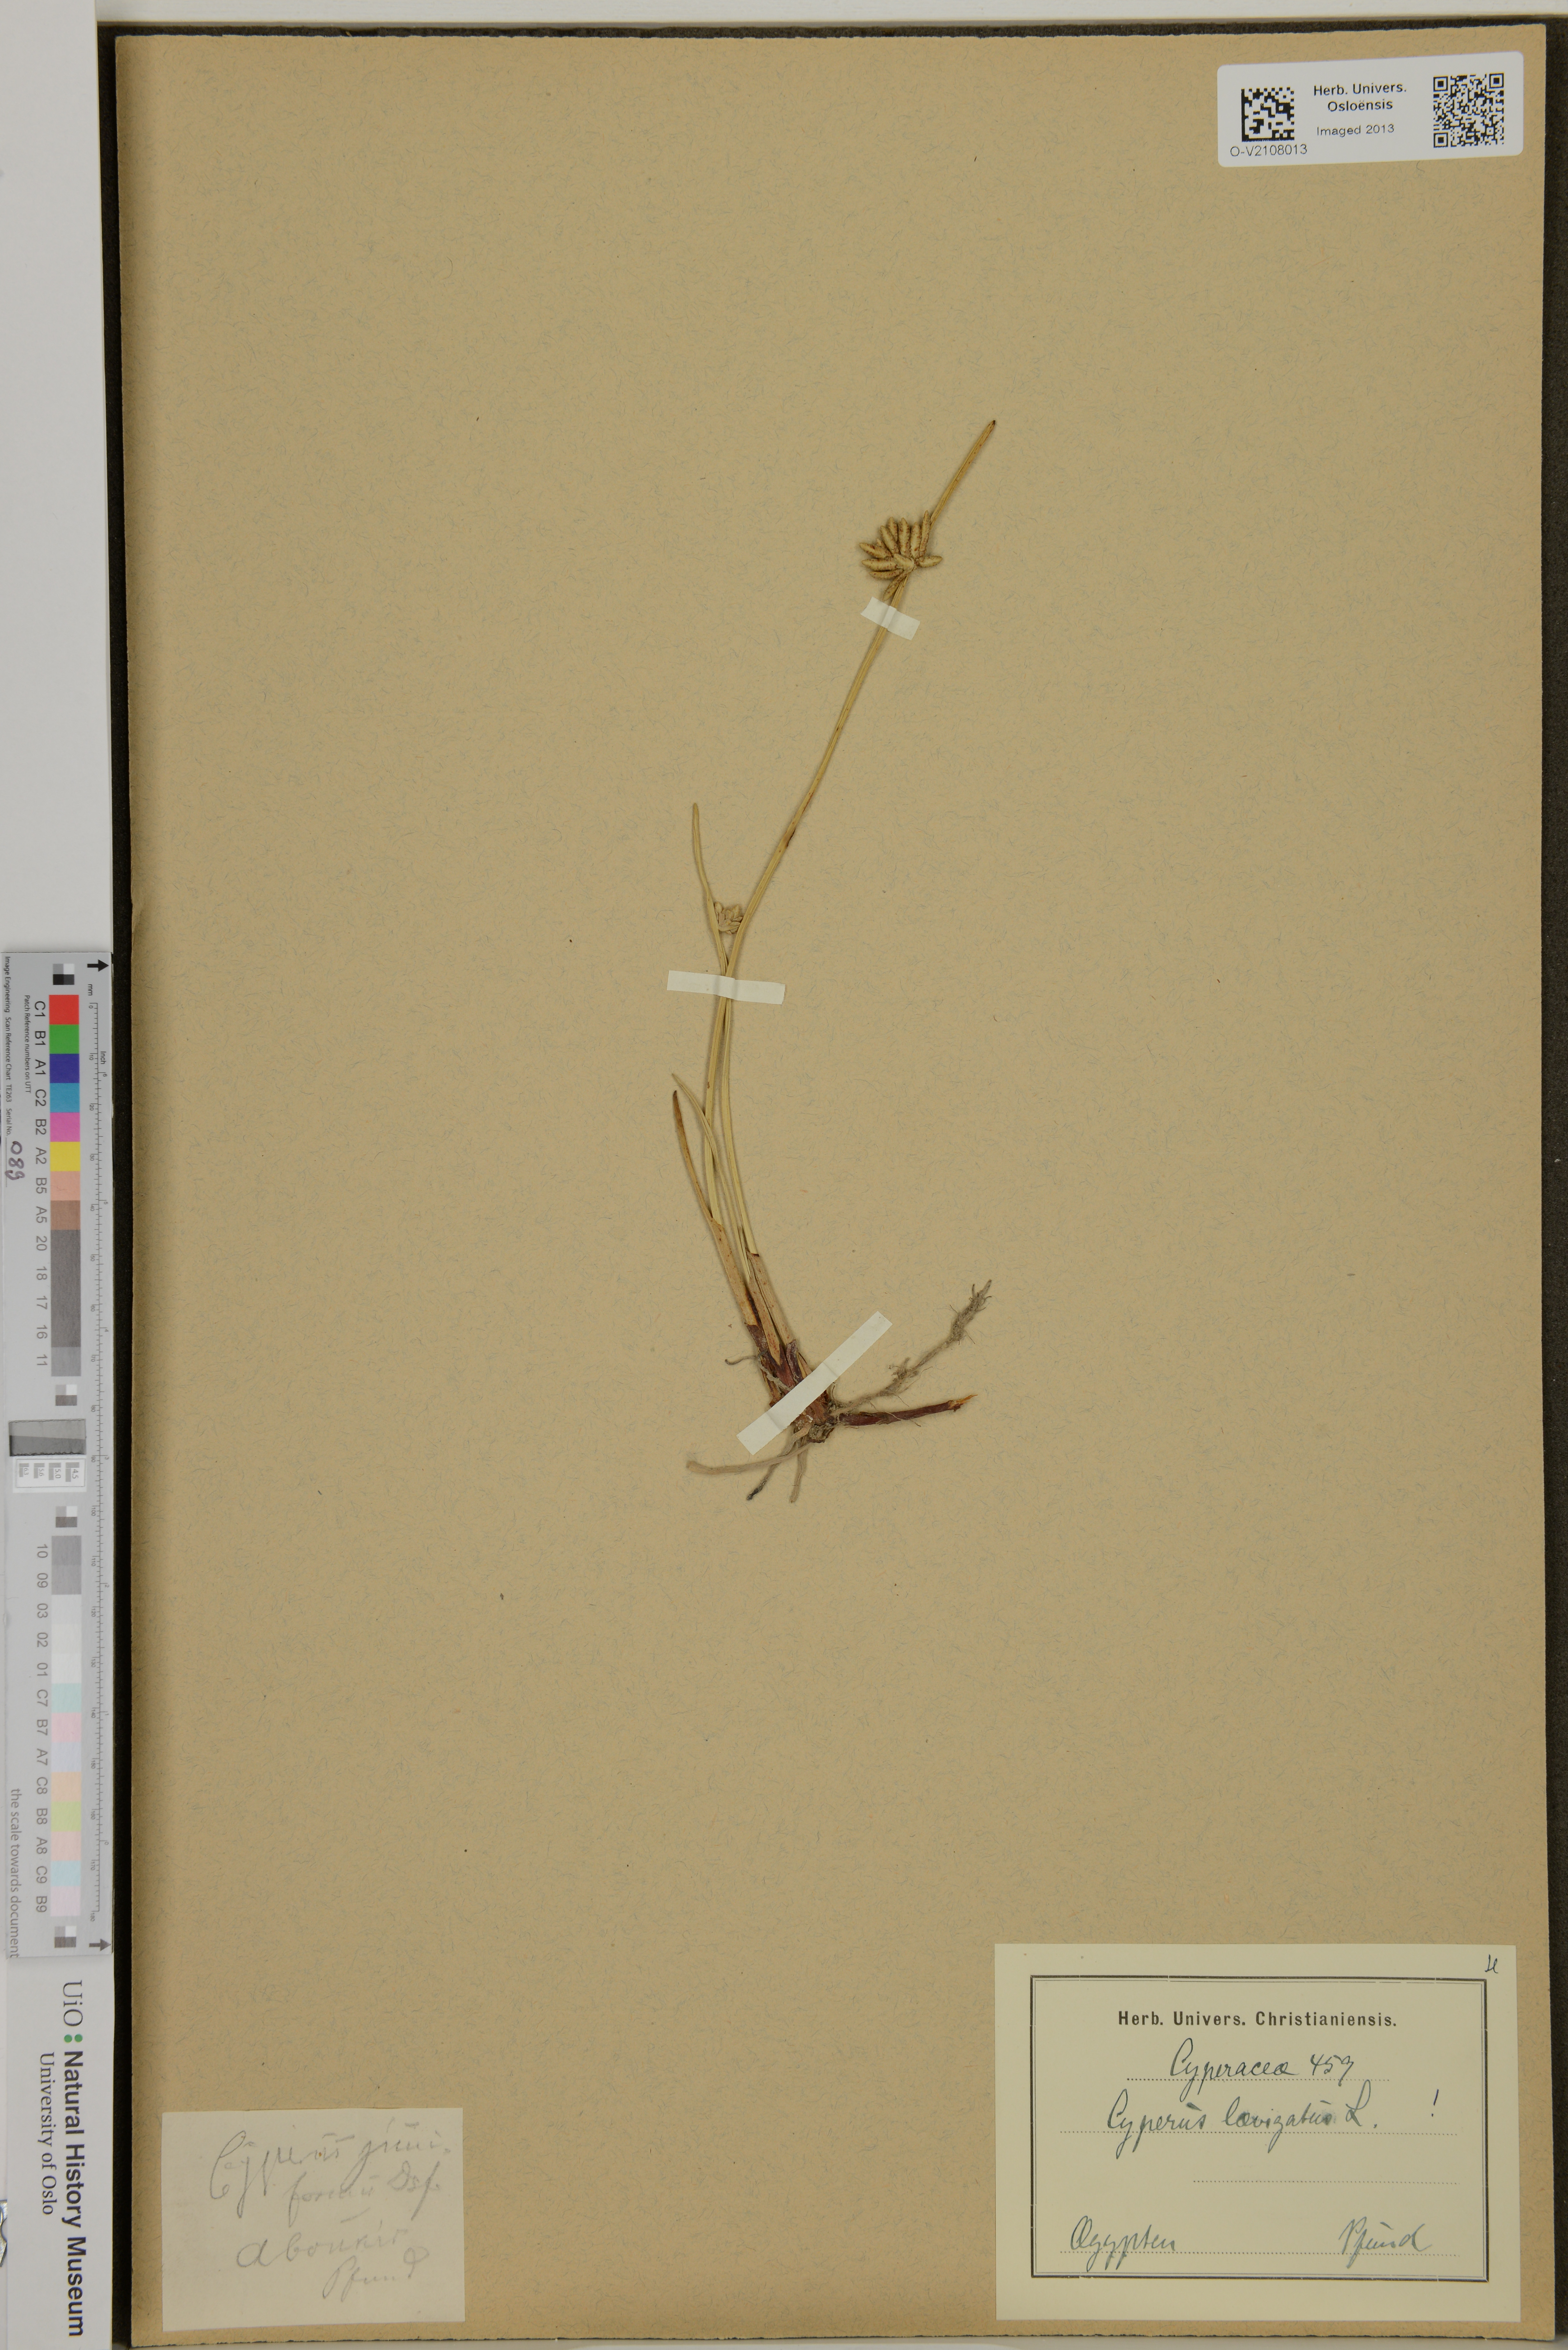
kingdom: Plantae
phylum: Tracheophyta
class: Liliopsida
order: Poales
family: Cyperaceae
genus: Cyperus
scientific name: Cyperus laevigatus
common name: Smooth flat sedge
